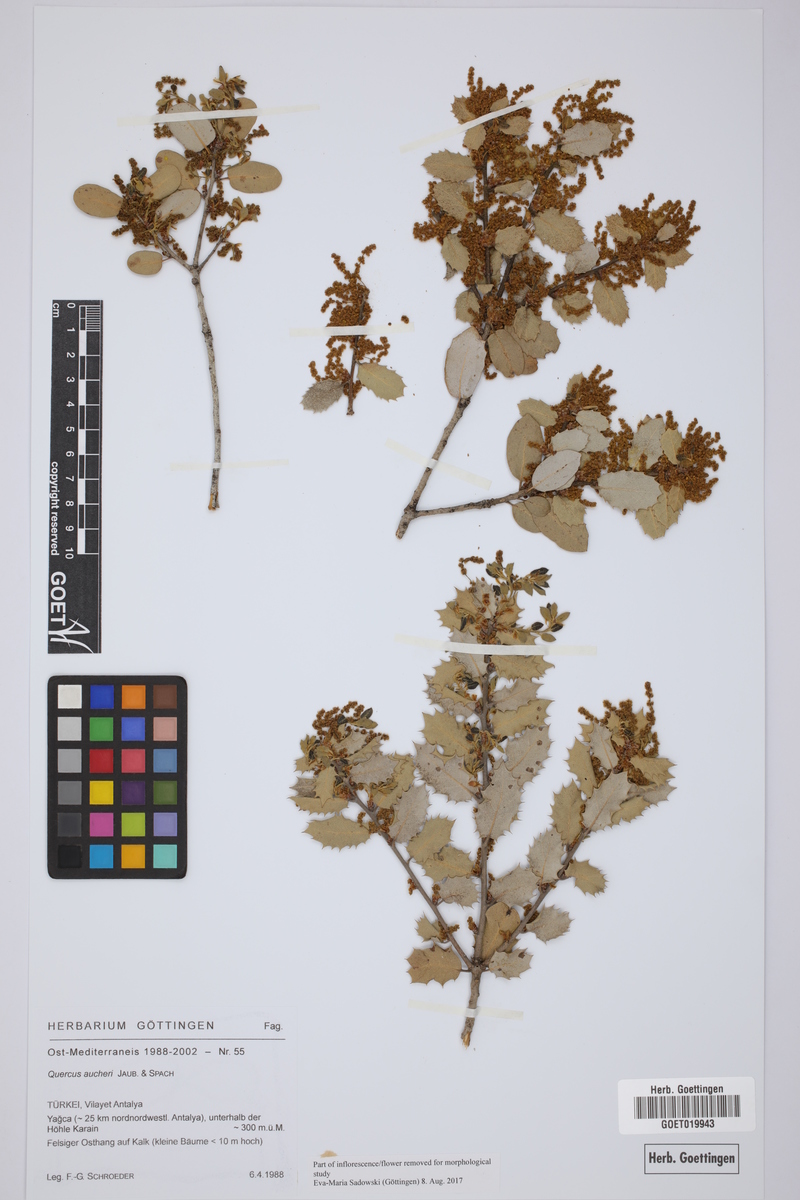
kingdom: Plantae
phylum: Tracheophyta
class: Magnoliopsida
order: Fagales
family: Fagaceae
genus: Quercus
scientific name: Quercus aucheri
